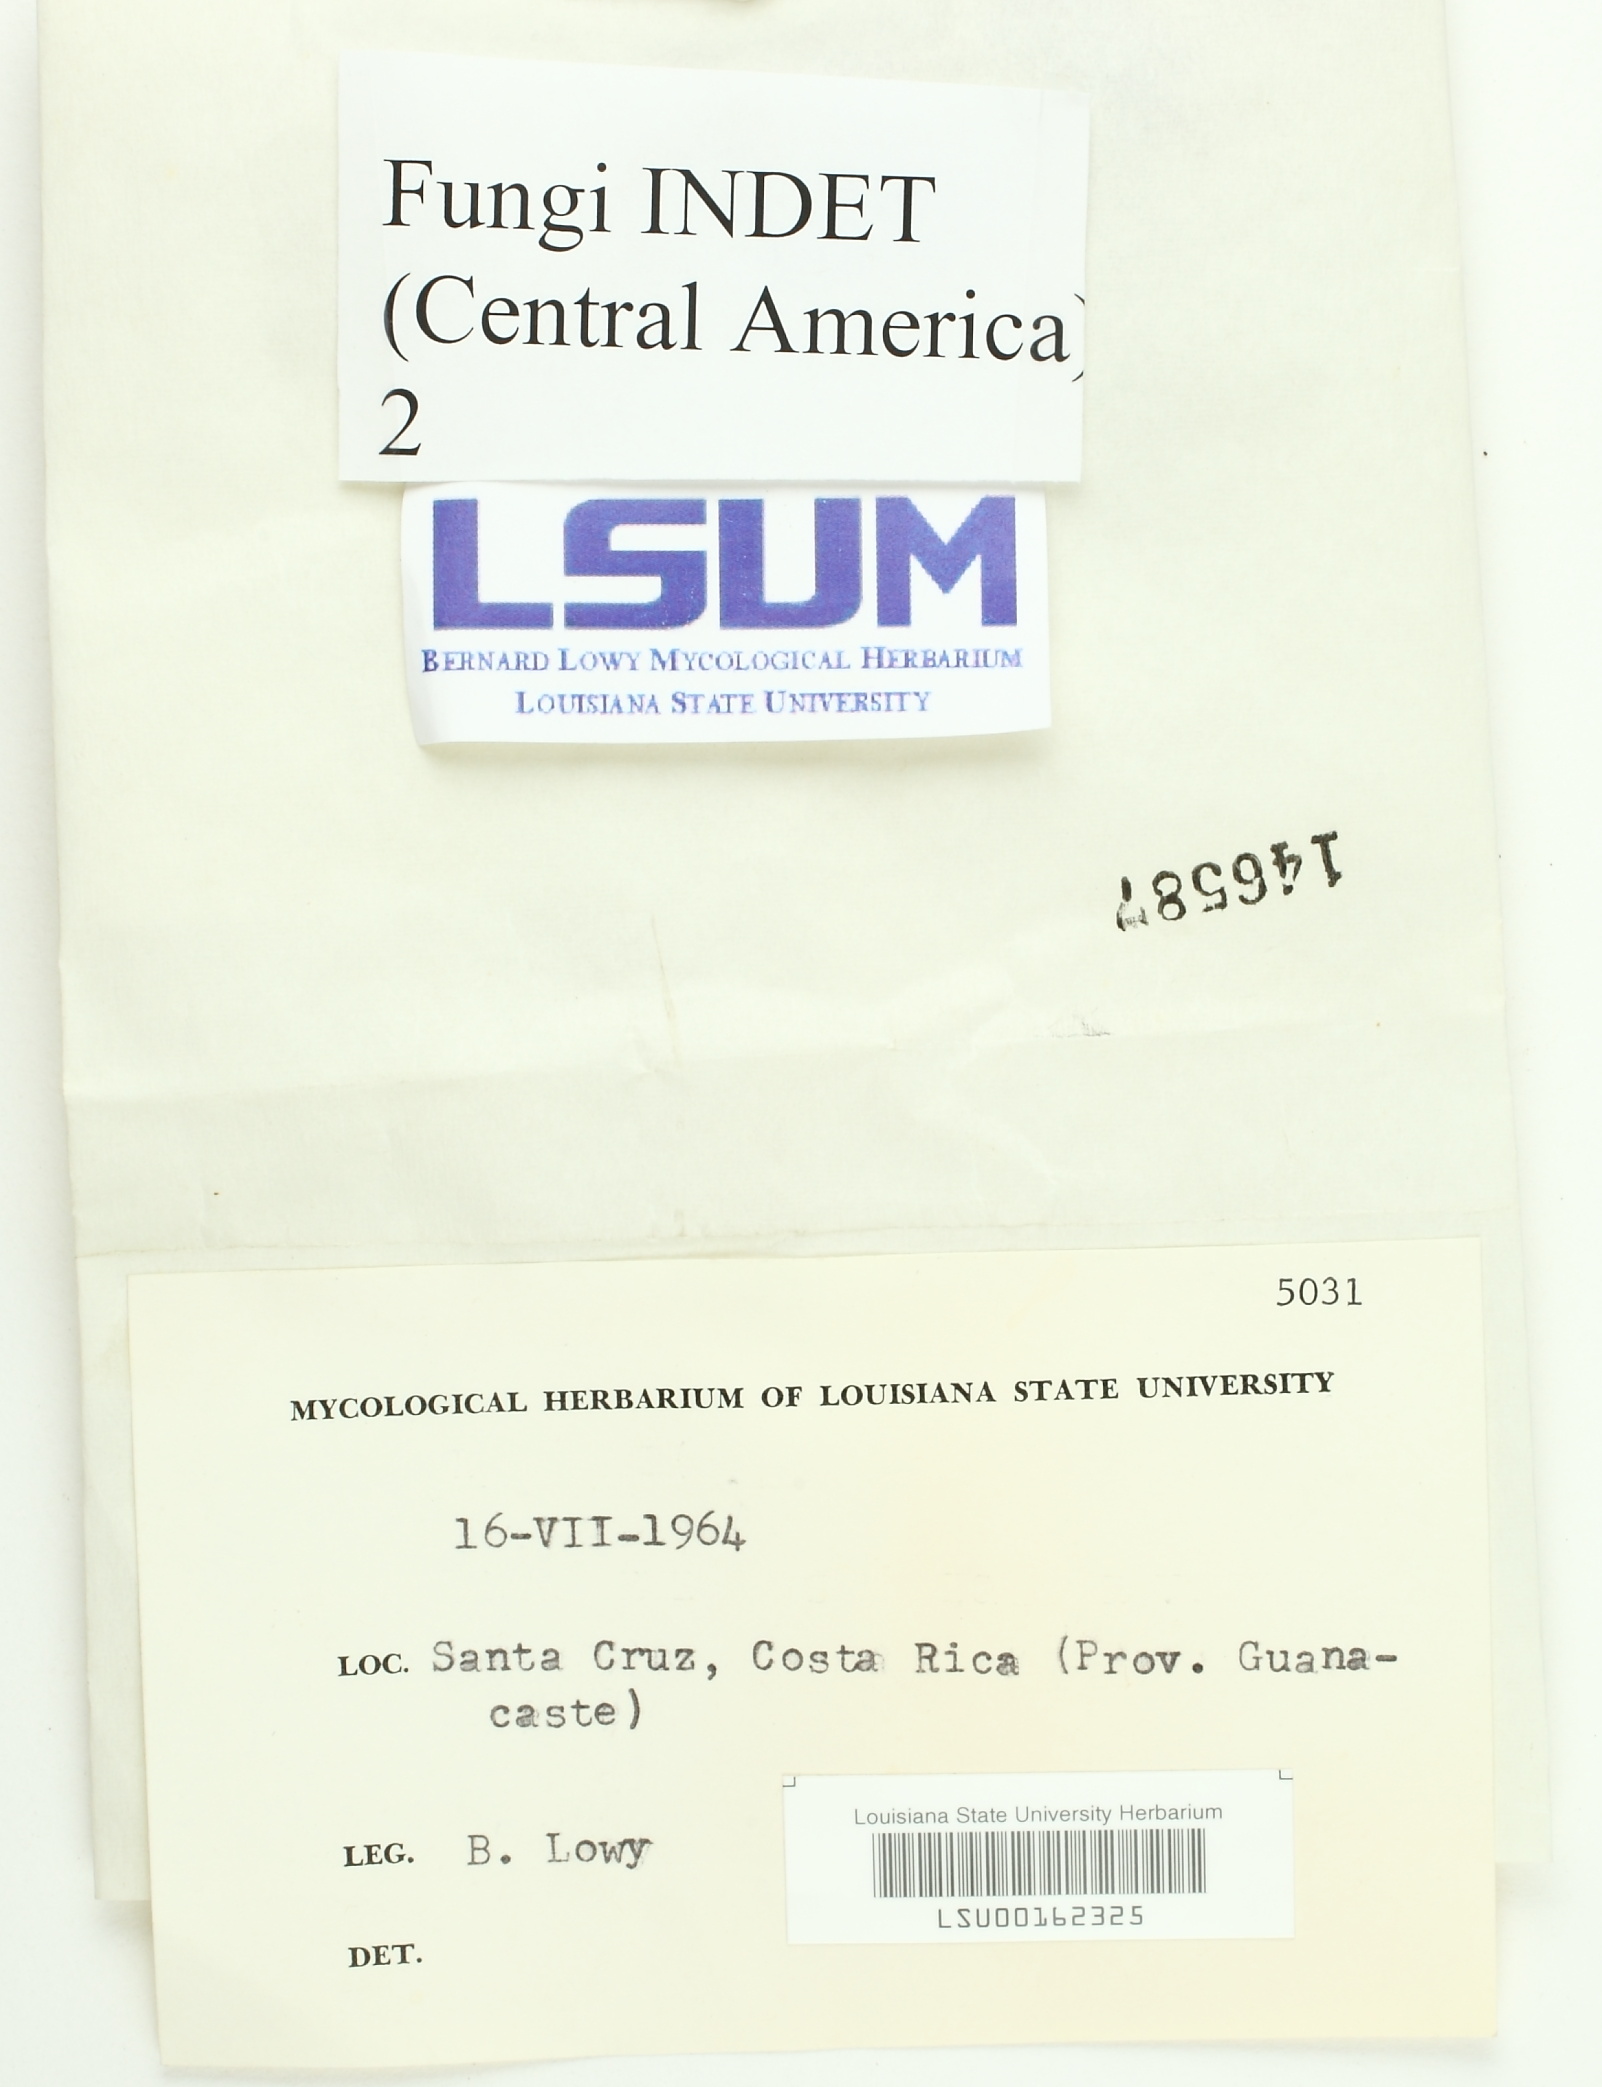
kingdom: Fungi
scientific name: Fungi
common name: Fungi
